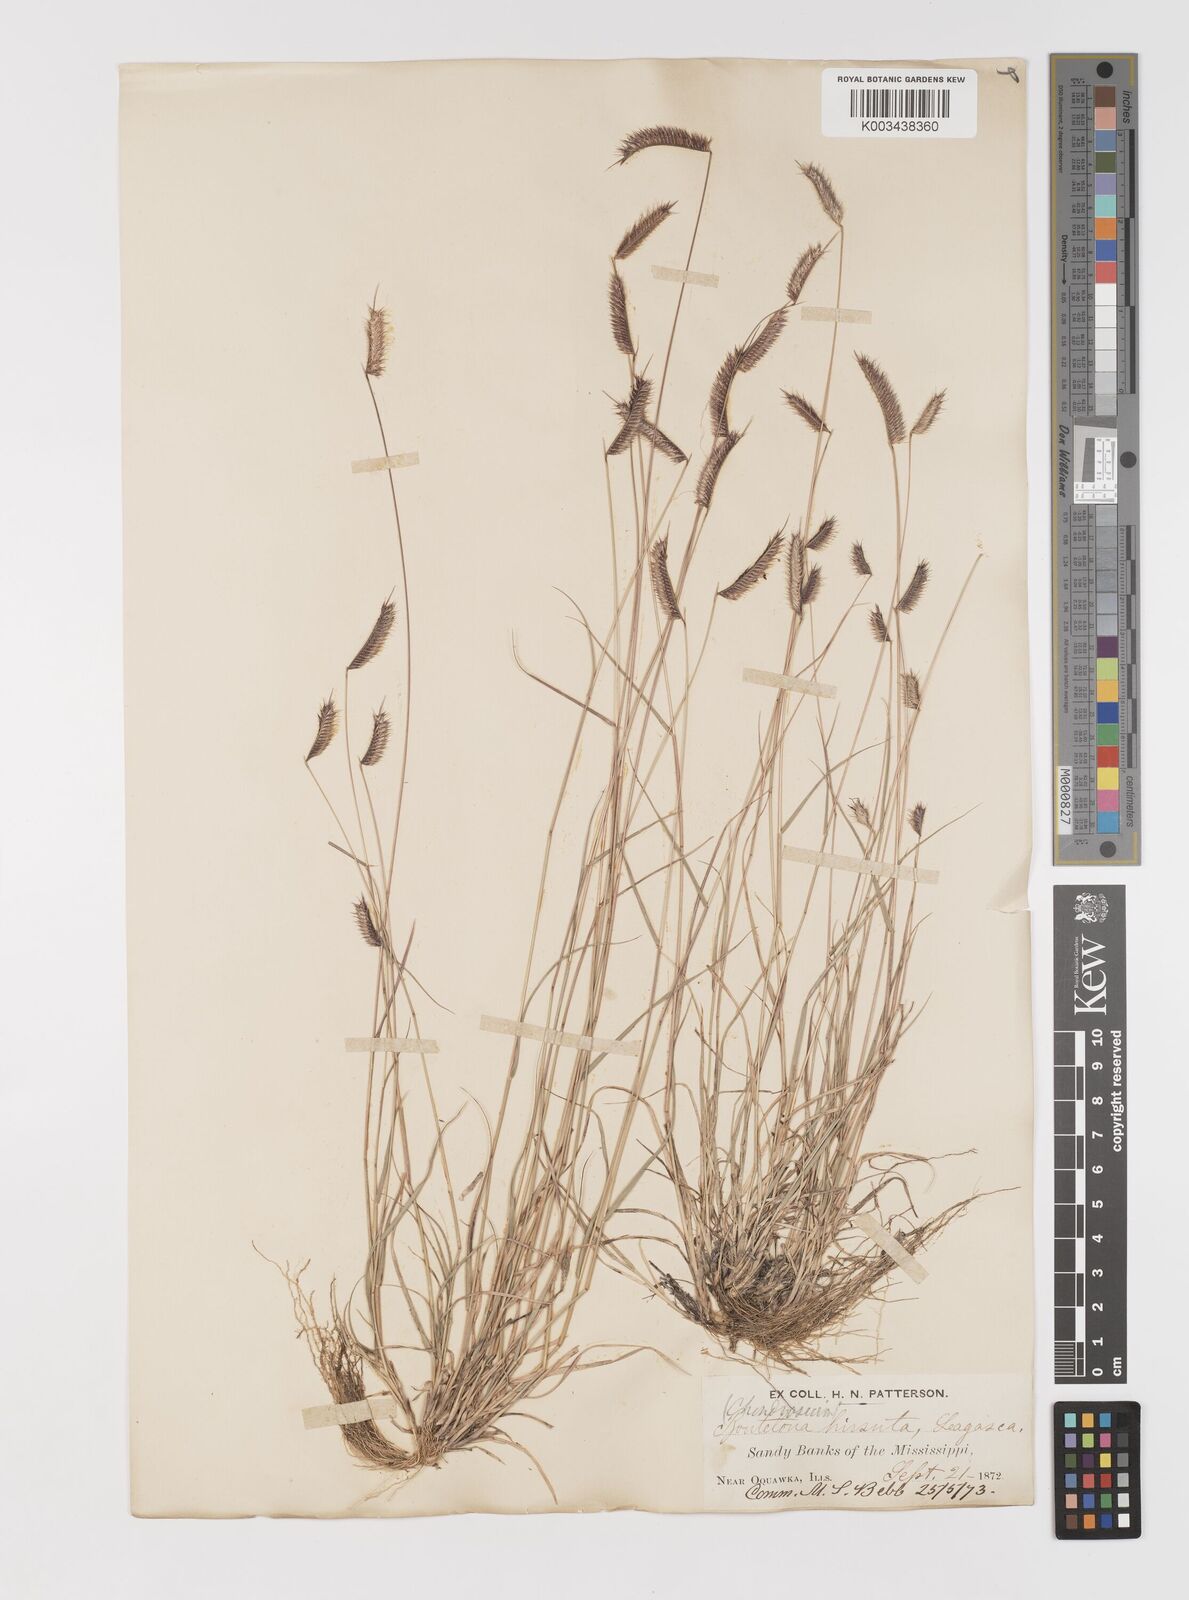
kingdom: Plantae
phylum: Tracheophyta
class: Liliopsida
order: Poales
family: Poaceae
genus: Bouteloua
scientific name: Bouteloua hirsuta
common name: Hairy grama
